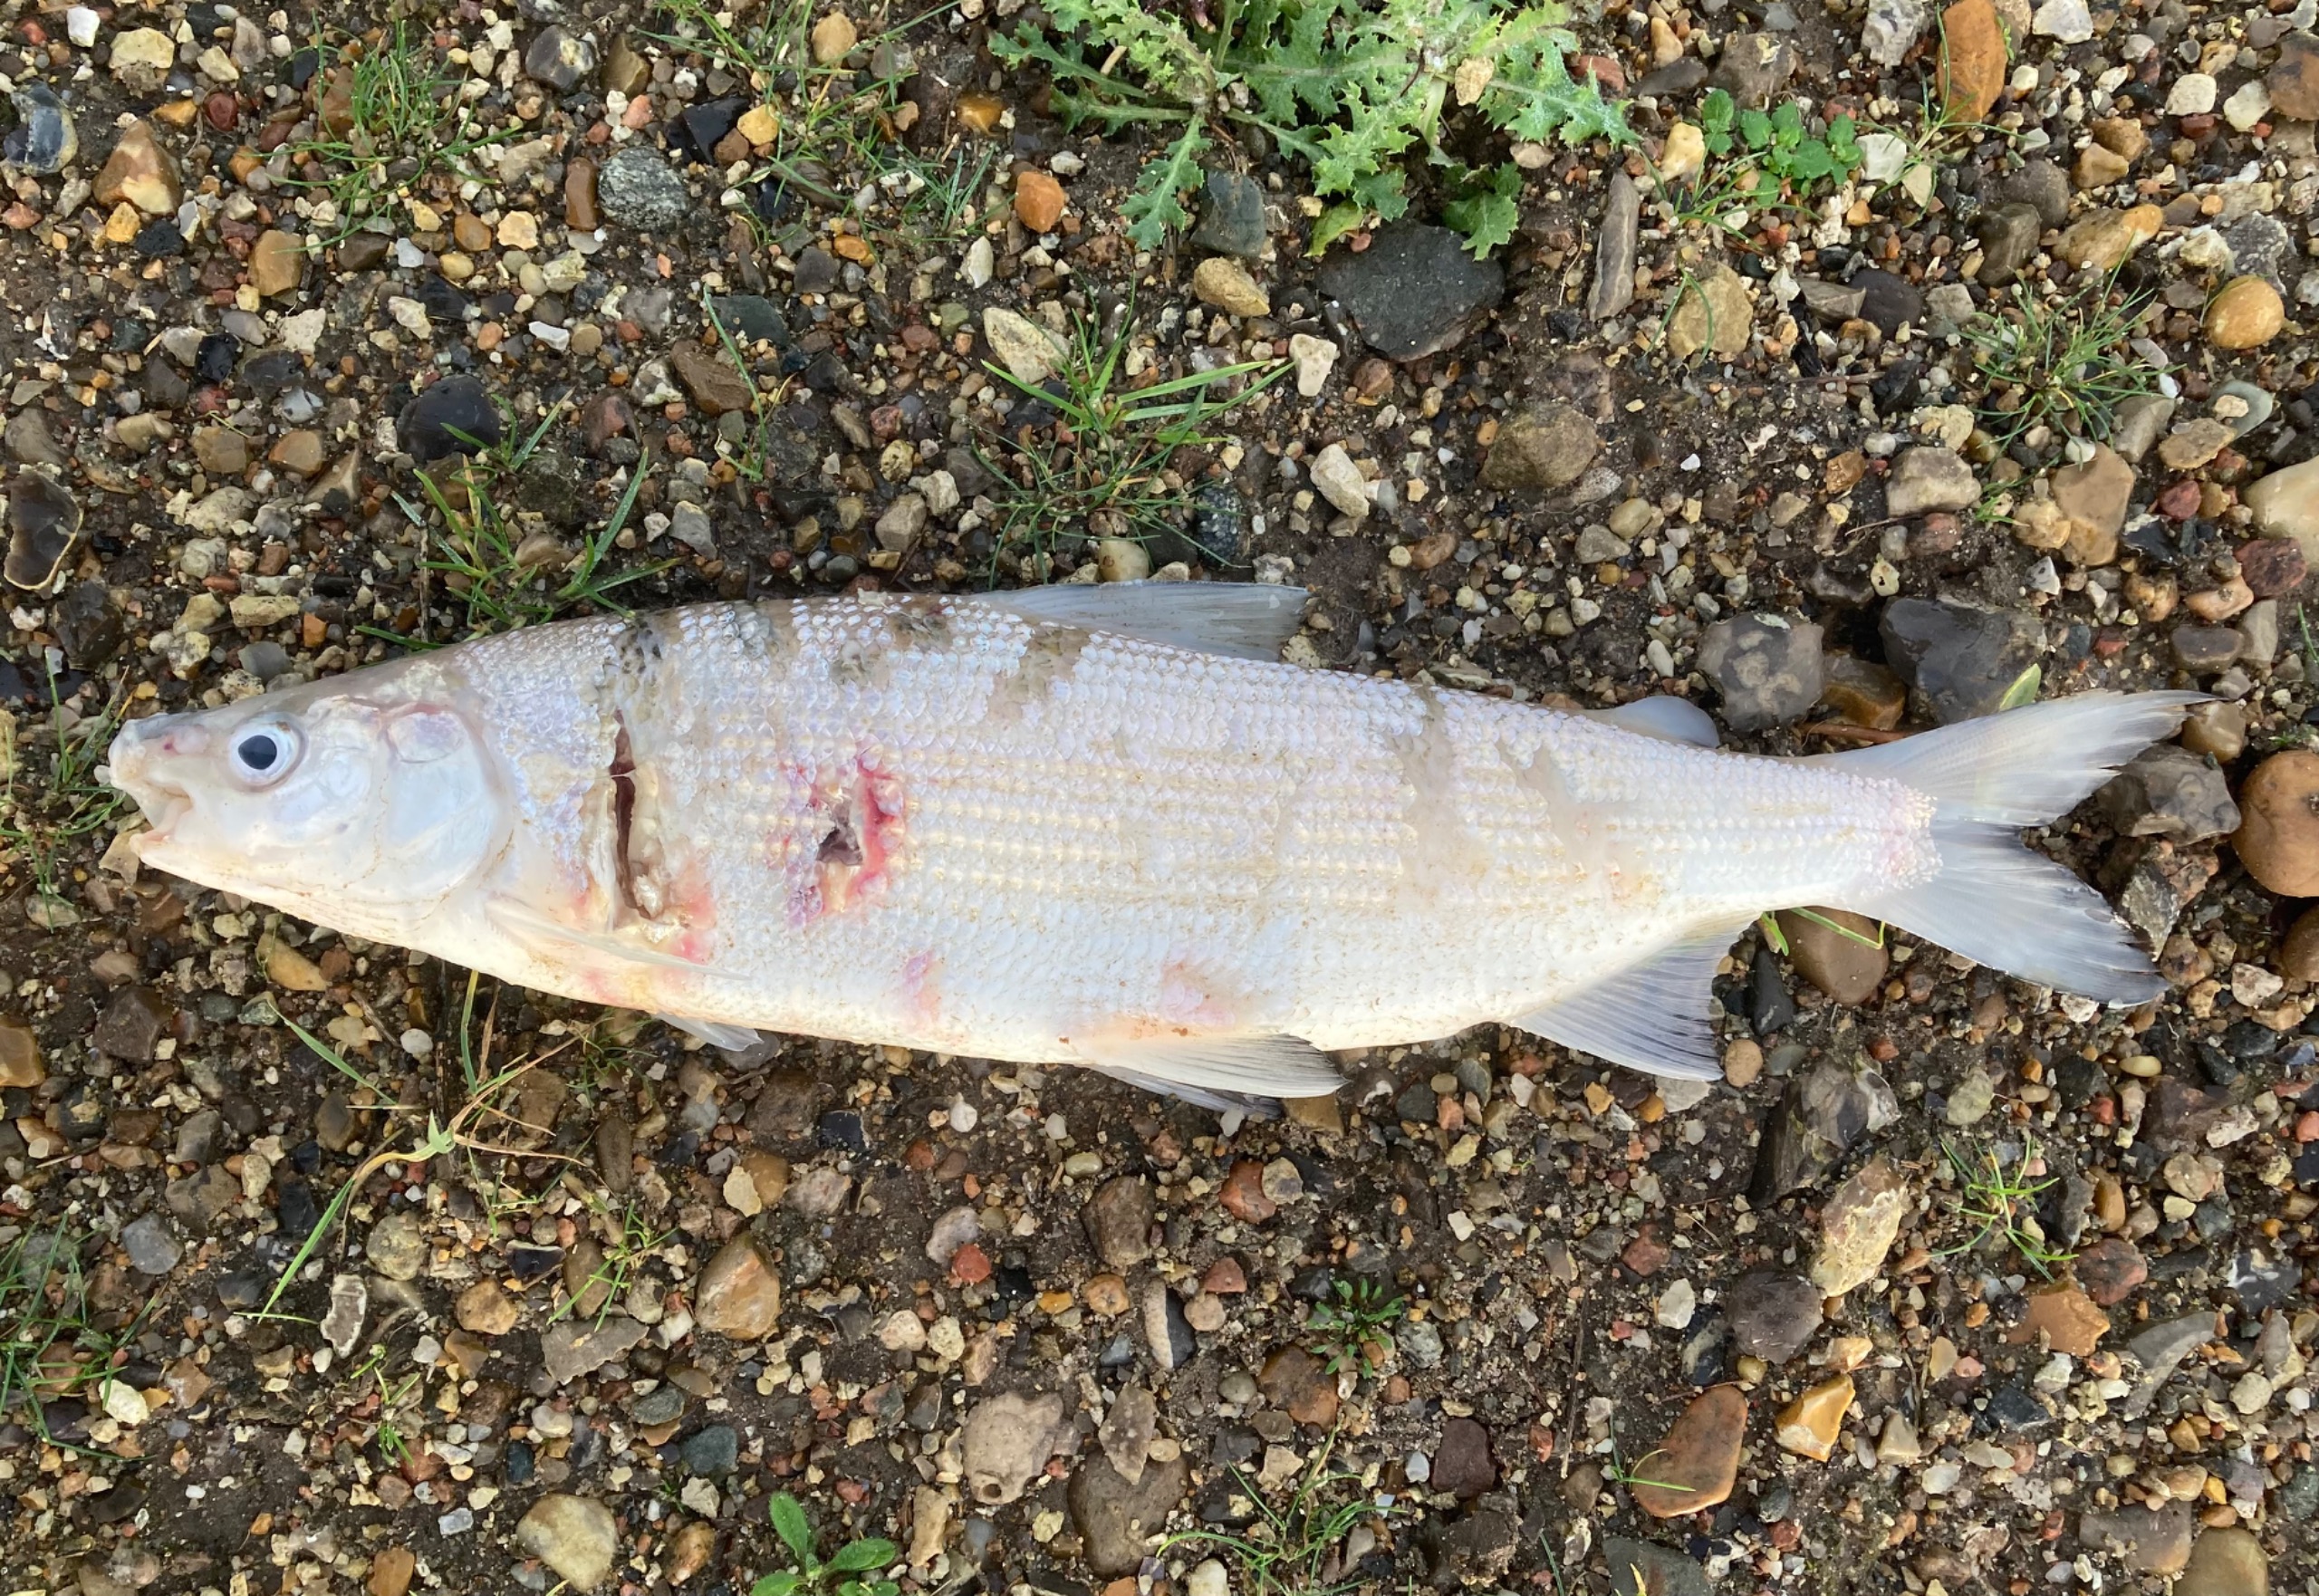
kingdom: Animalia
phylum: Chordata
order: Salmoniformes
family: Salmonidae
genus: Coregonus
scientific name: Coregonus maraena
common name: Helt
